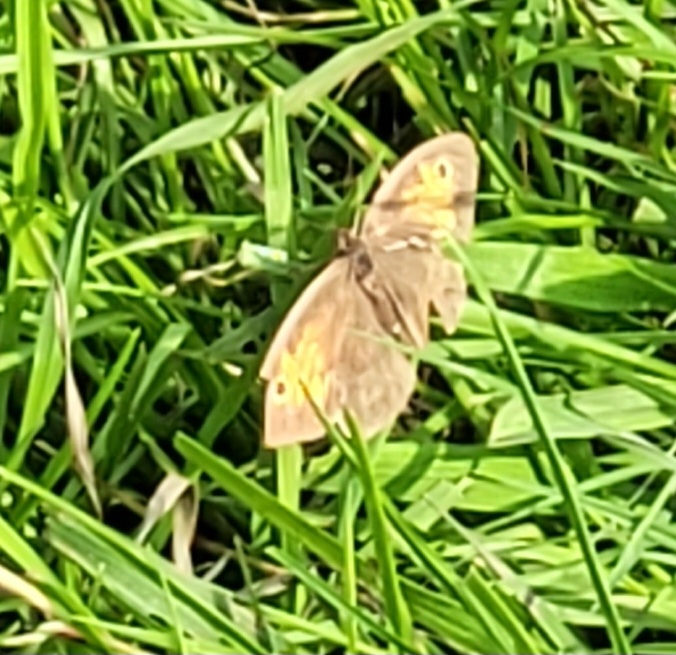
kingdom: Animalia
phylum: Arthropoda
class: Insecta
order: Lepidoptera
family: Nymphalidae
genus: Maniola
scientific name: Maniola jurtina
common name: Græsrandøje
